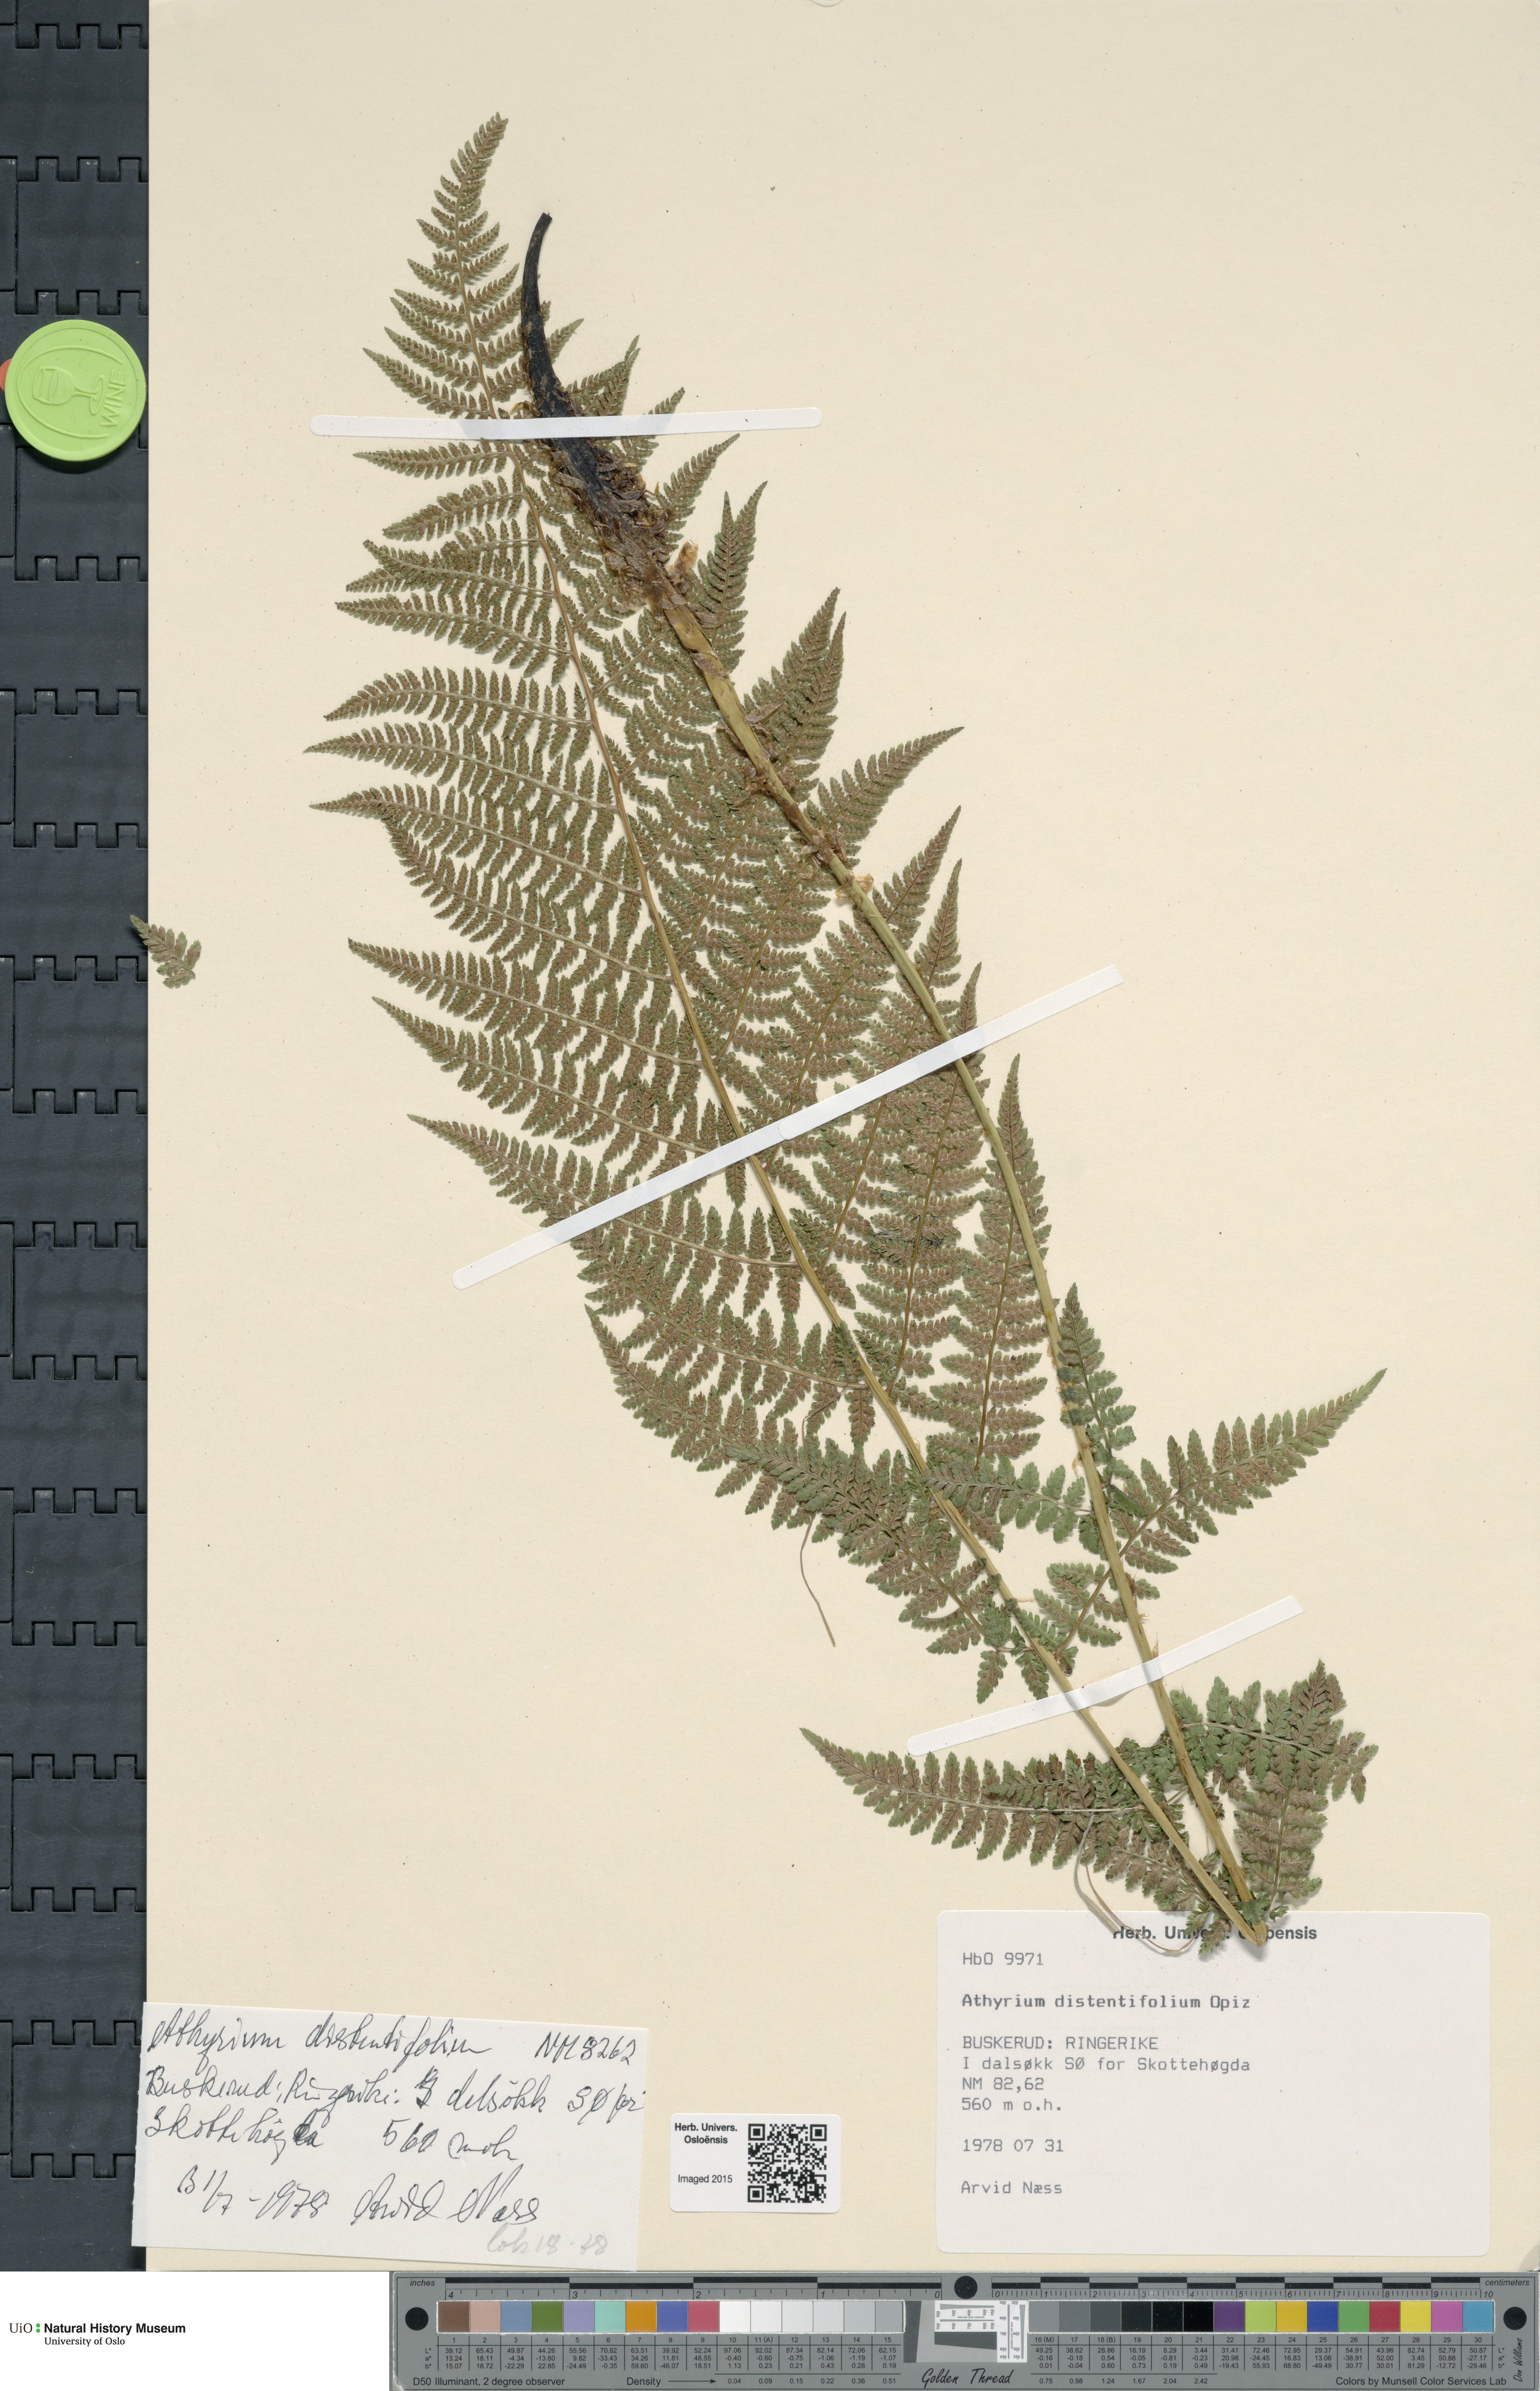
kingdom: Plantae
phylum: Tracheophyta
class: Polypodiopsida
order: Polypodiales
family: Athyriaceae
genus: Pseudathyrium
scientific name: Pseudathyrium alpestre
